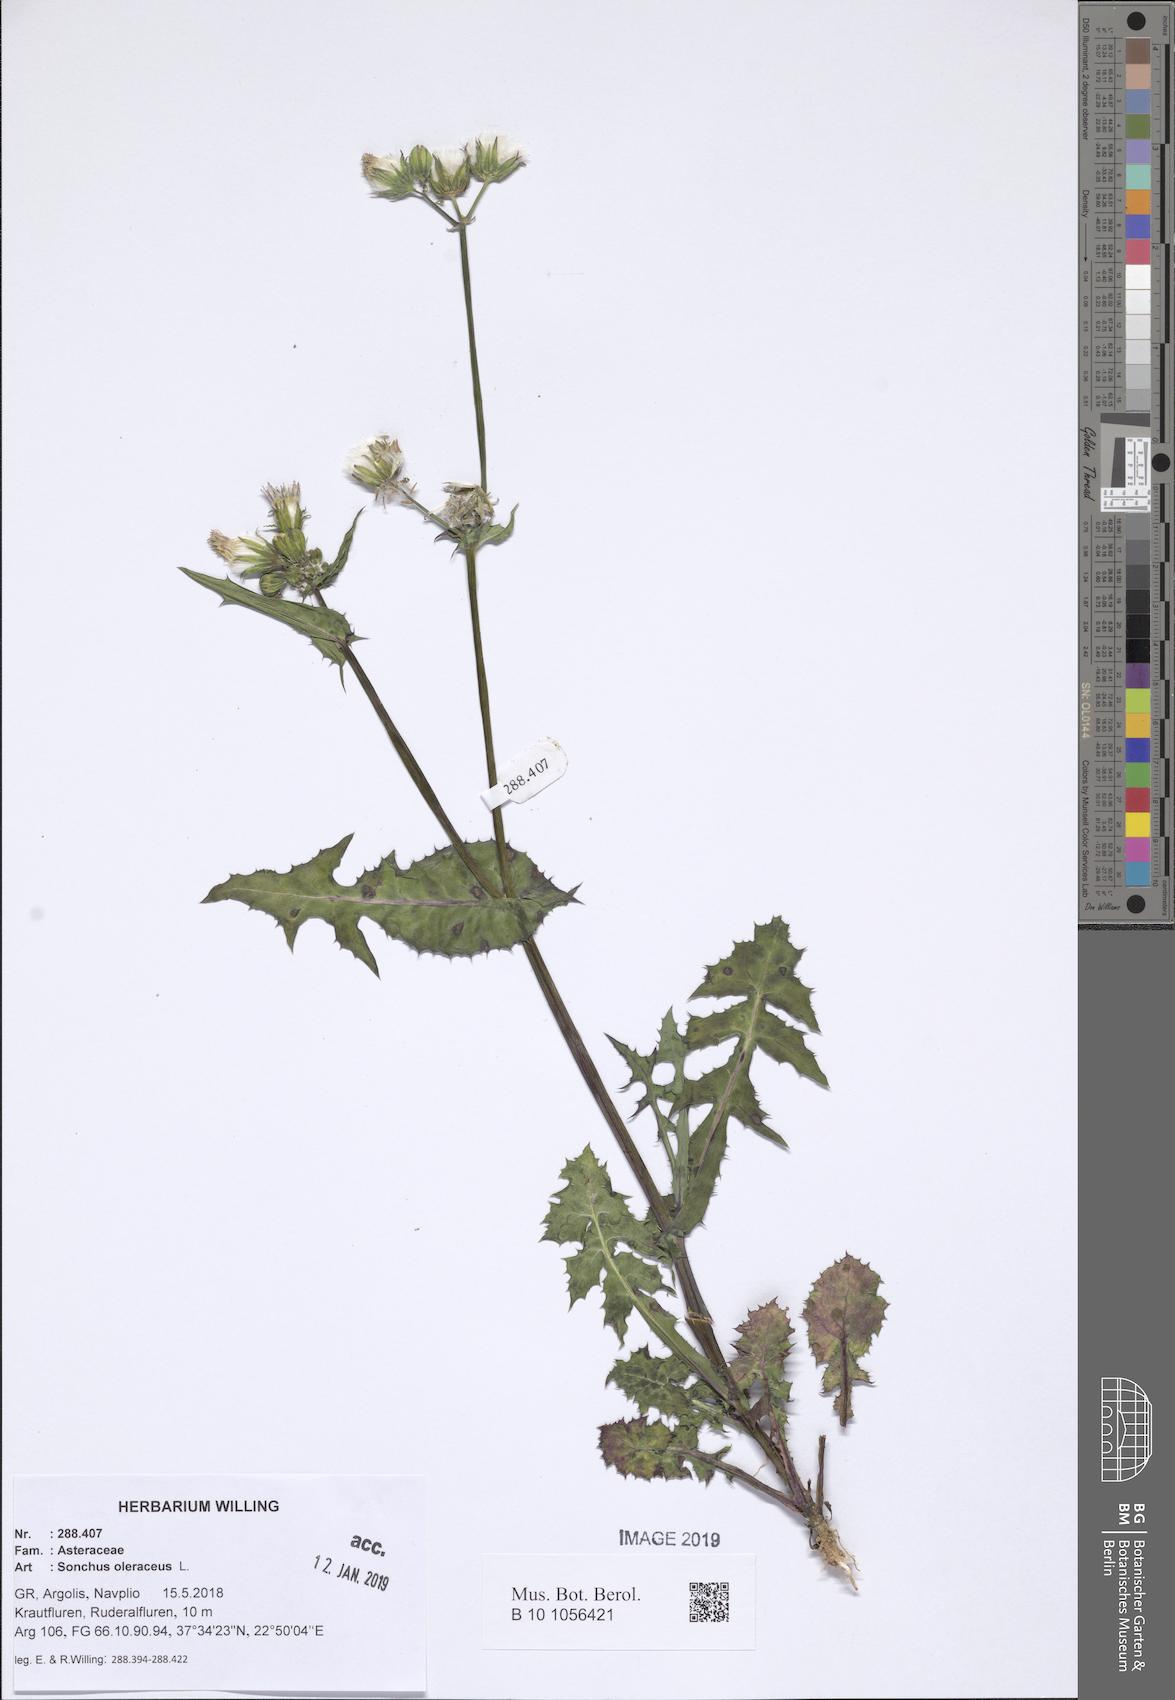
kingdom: Plantae
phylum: Tracheophyta
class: Magnoliopsida
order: Asterales
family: Asteraceae
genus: Sonchus
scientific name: Sonchus oleraceus
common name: Common sowthistle
